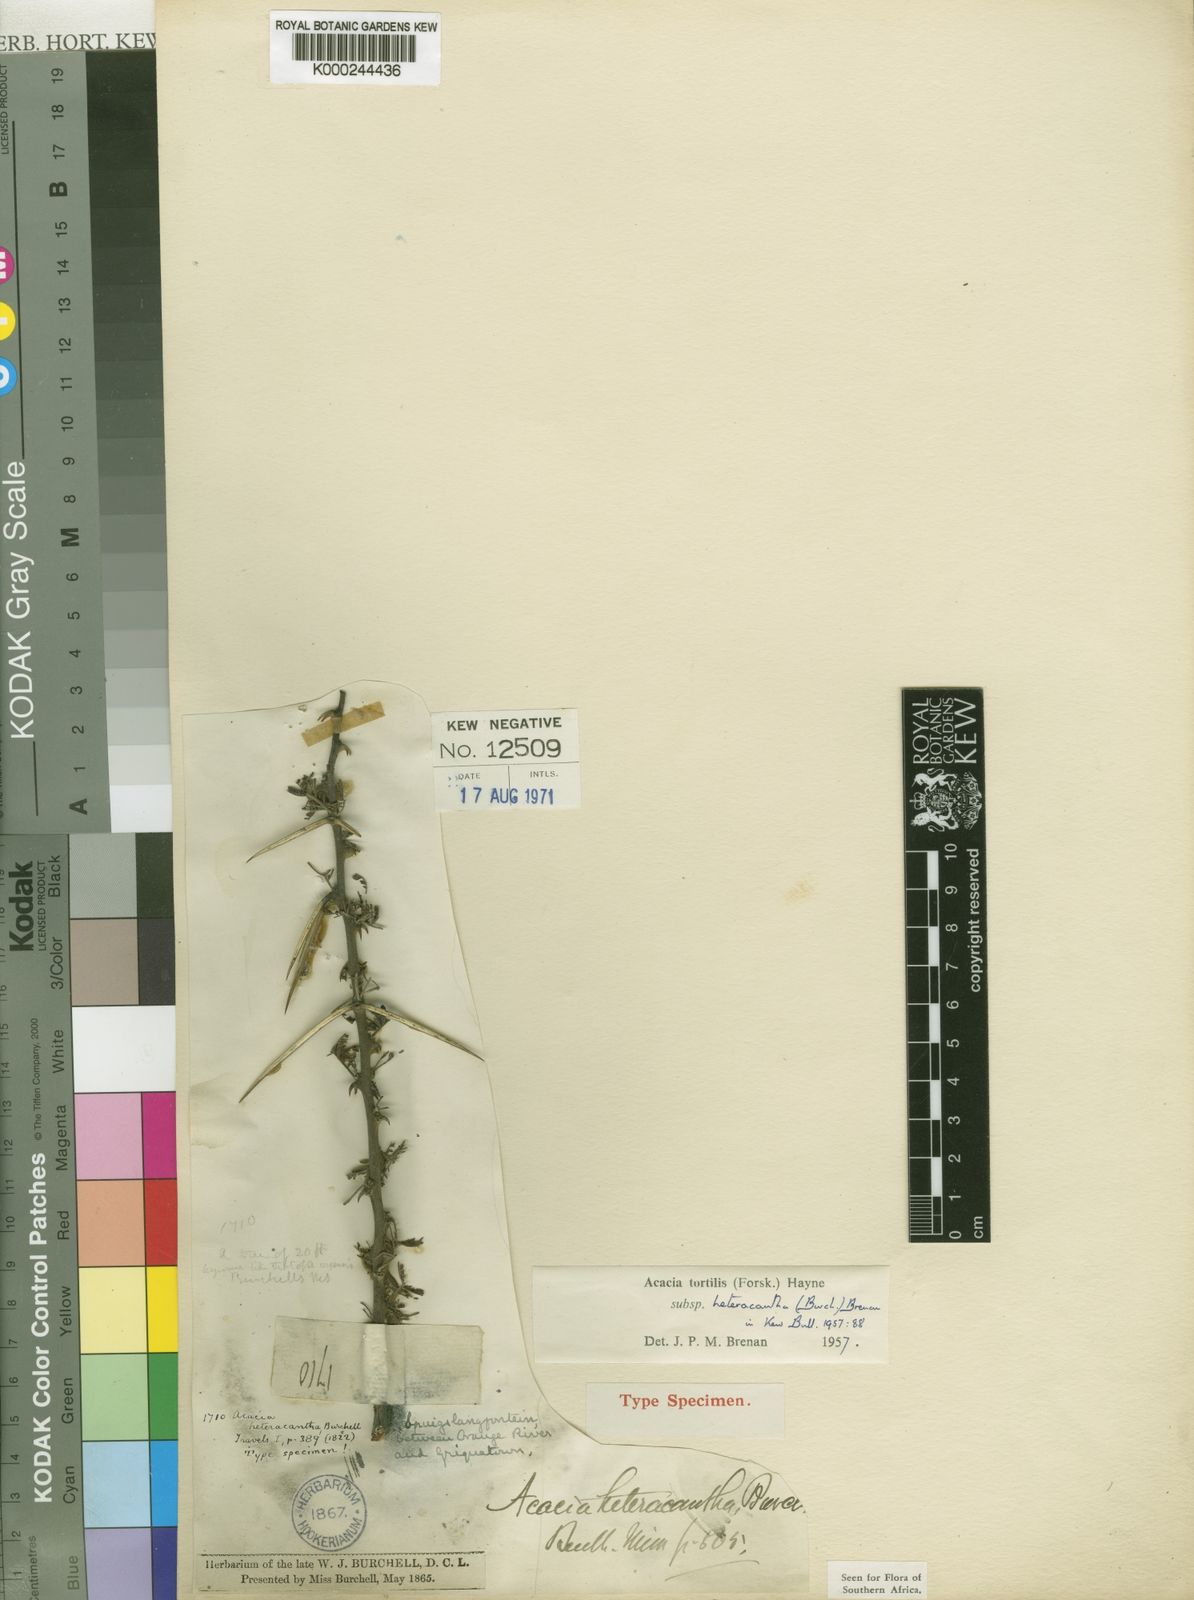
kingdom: Plantae
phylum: Tracheophyta
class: Magnoliopsida
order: Fabales
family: Fabaceae
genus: Vachellia
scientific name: Vachellia tortilis
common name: Umbrella thorn acacia
